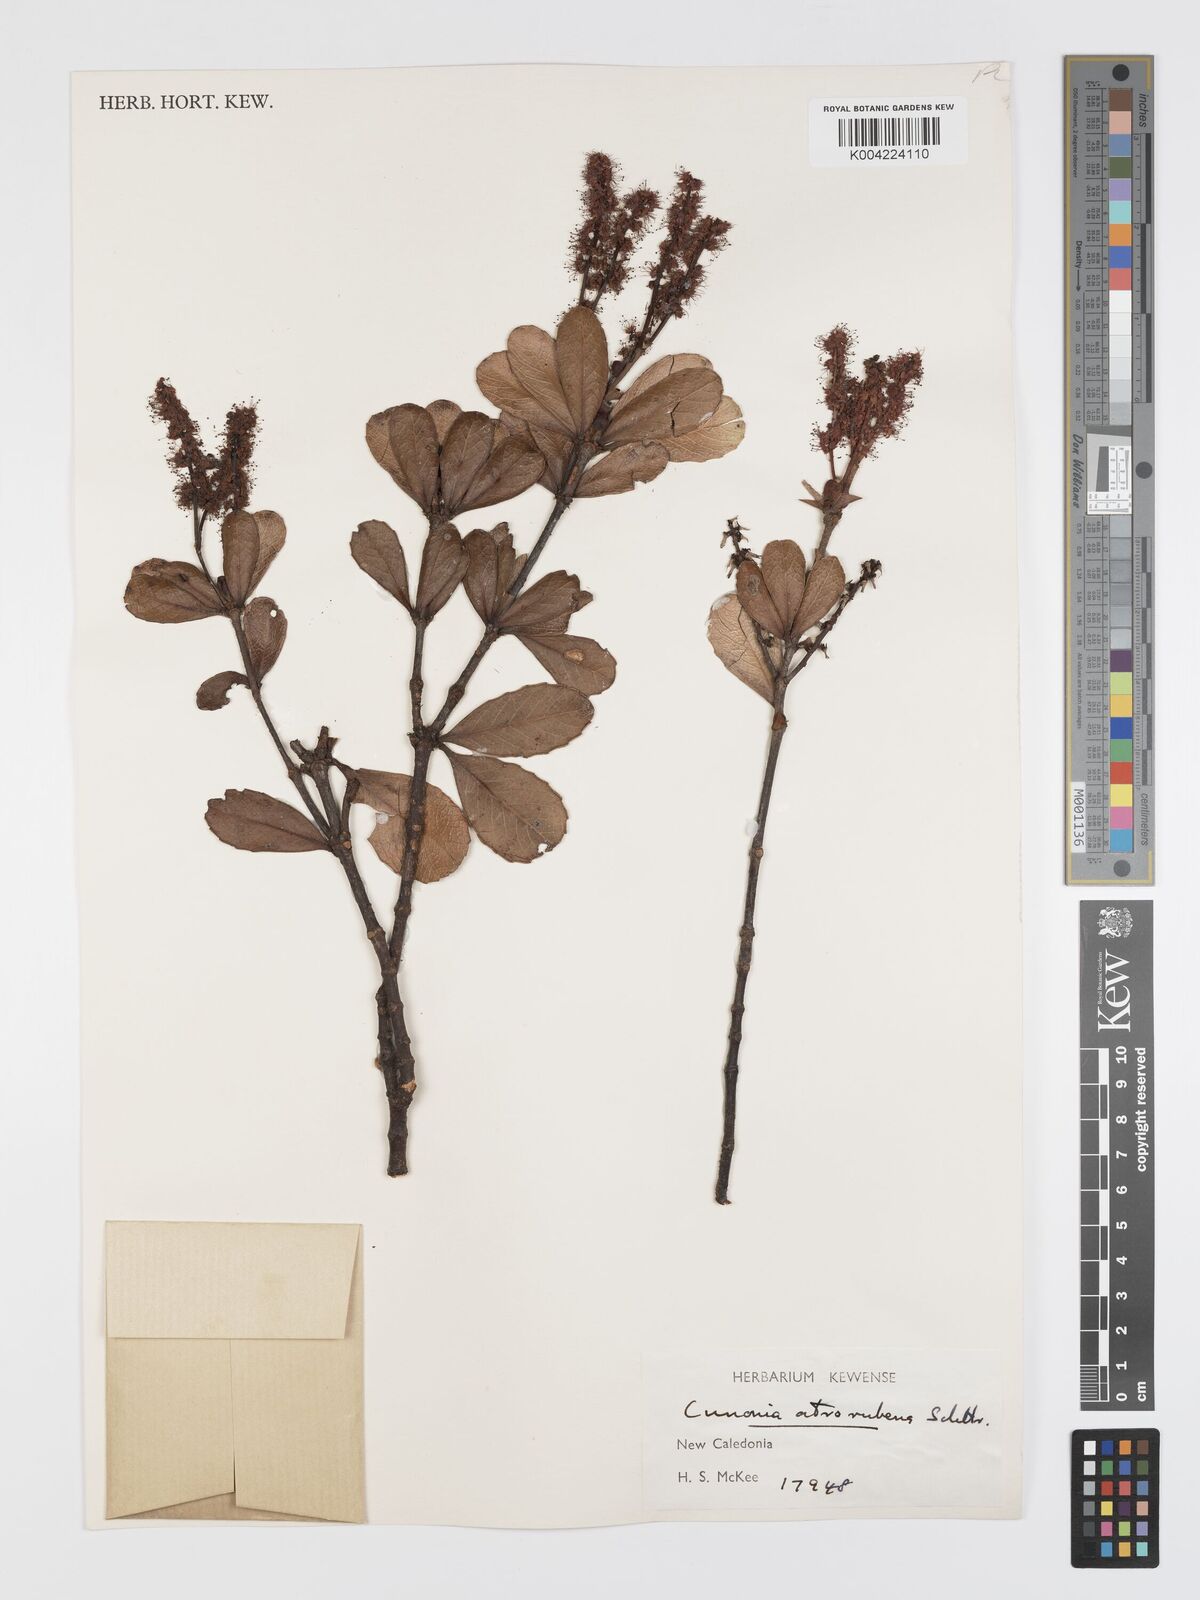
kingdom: Plantae
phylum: Tracheophyta
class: Magnoliopsida
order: Oxalidales
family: Cunoniaceae
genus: Cunonia
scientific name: Cunonia atrorubens
